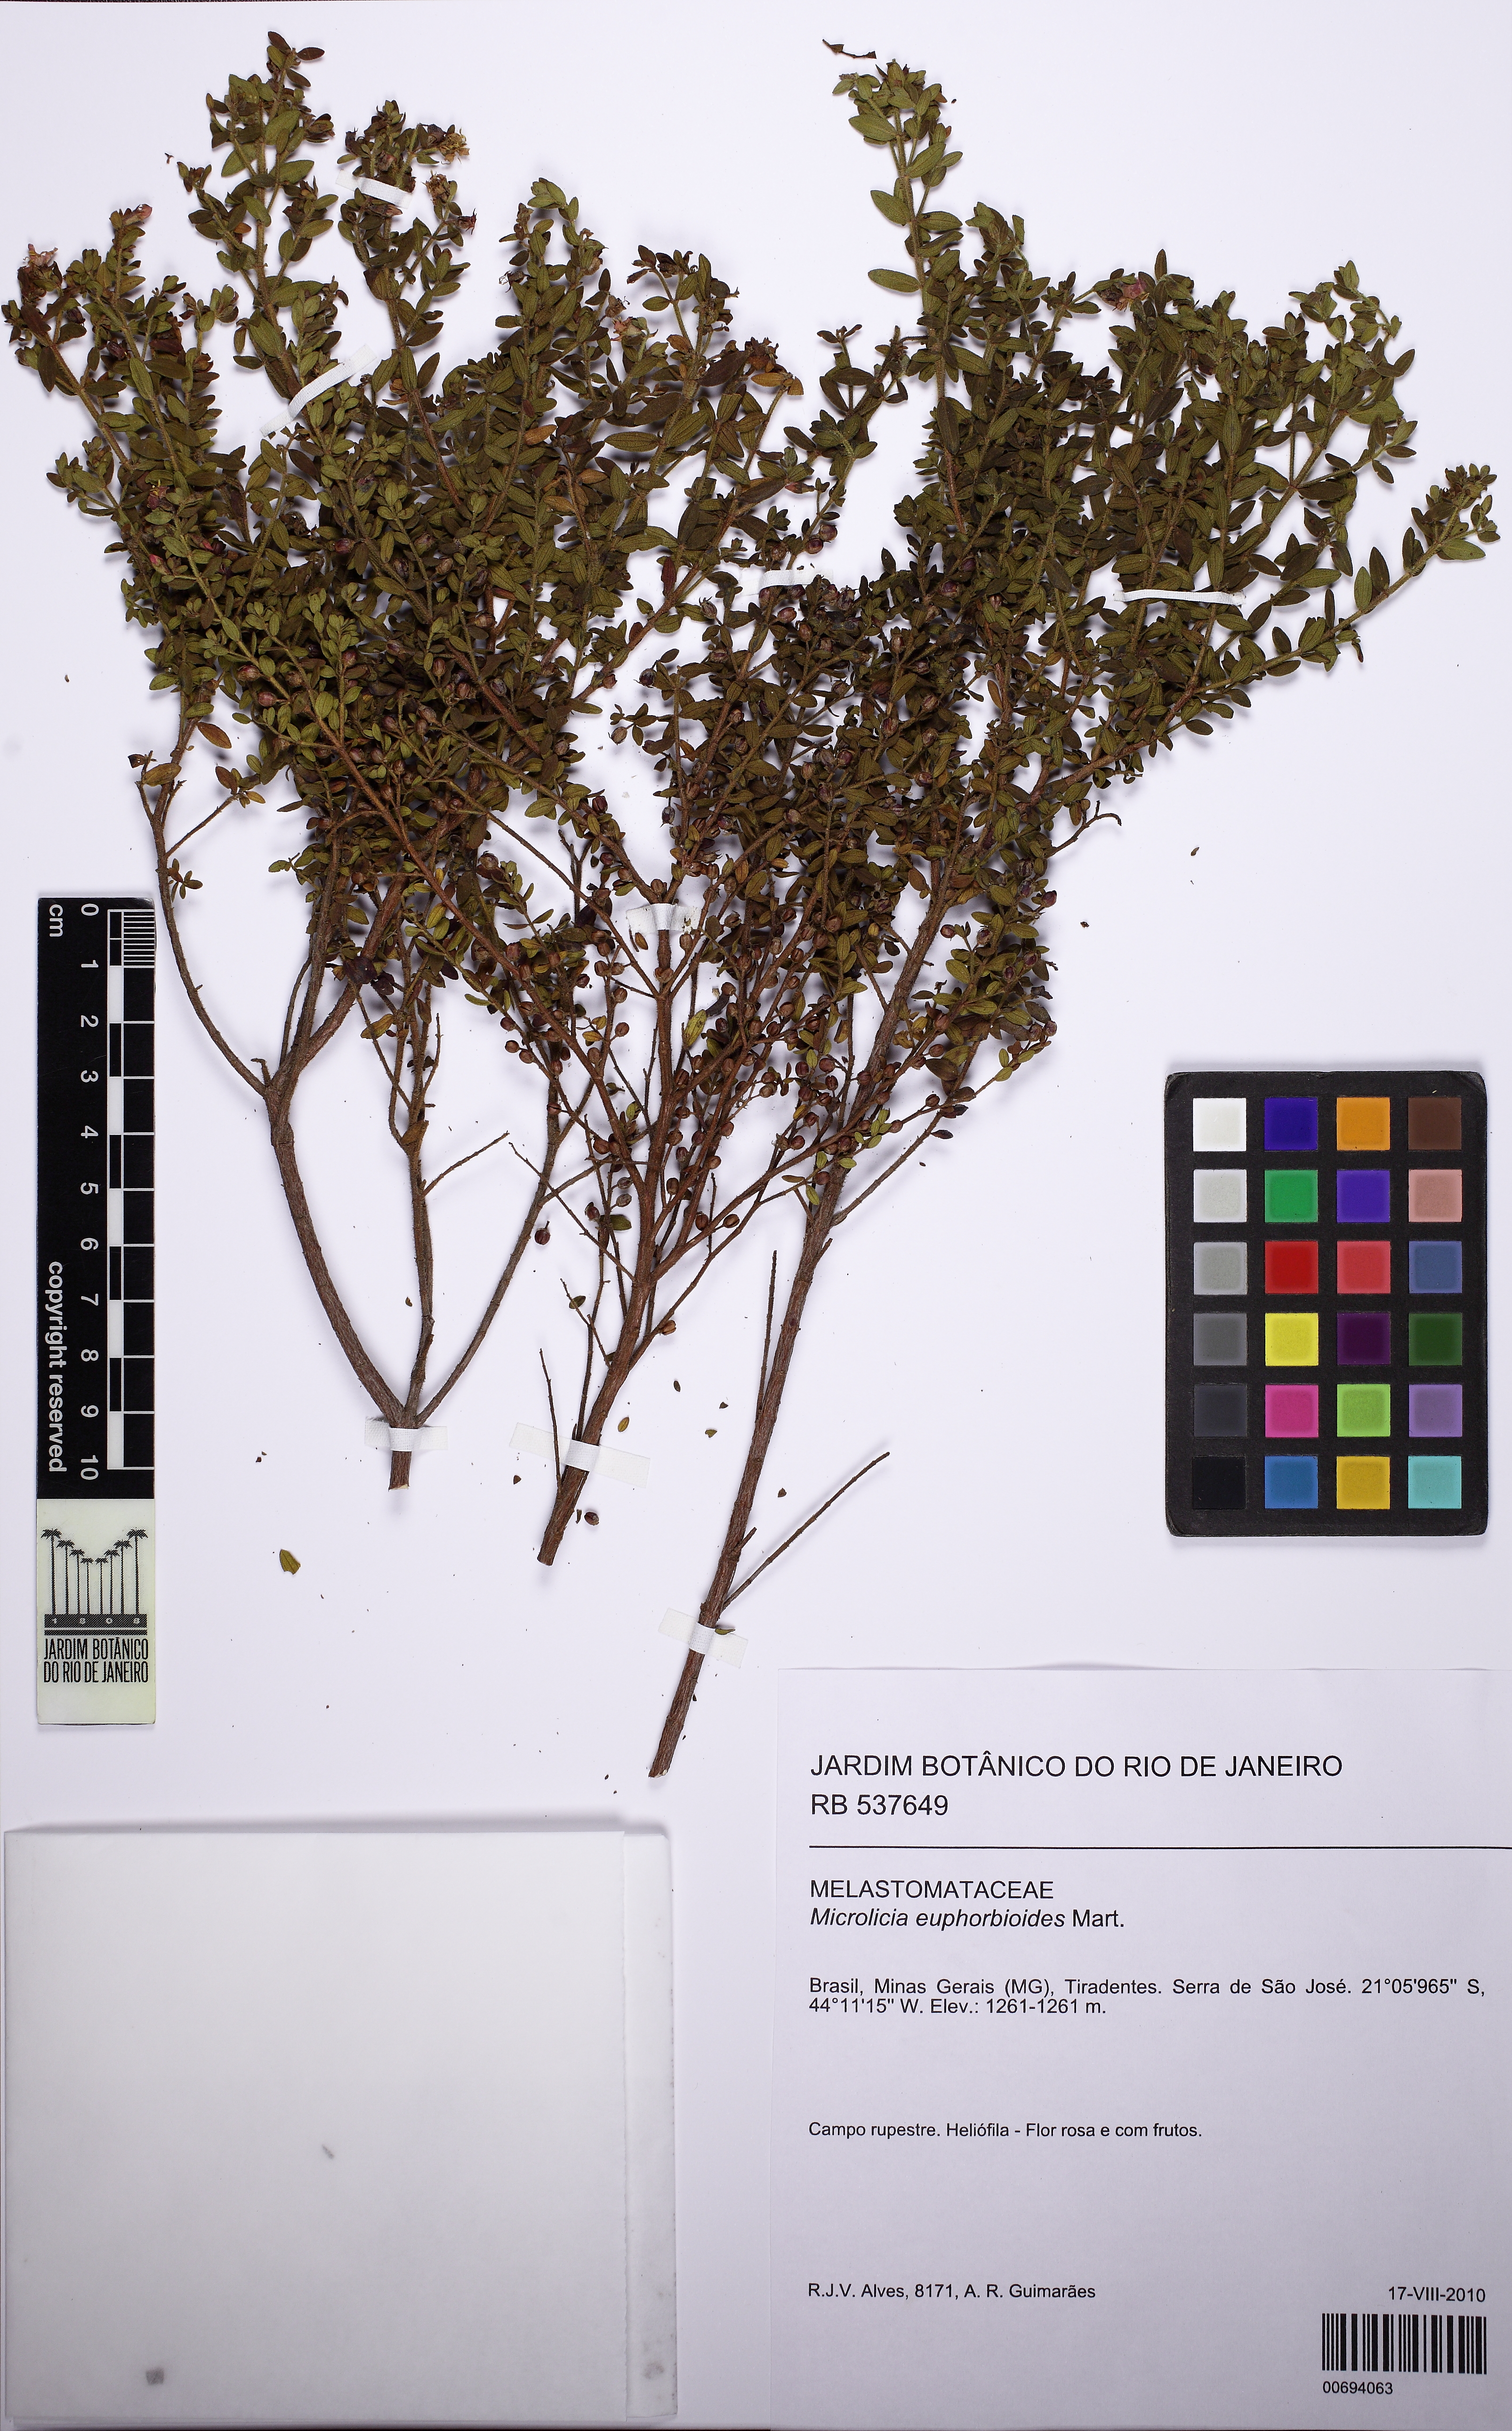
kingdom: Plantae
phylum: Tracheophyta
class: Magnoliopsida
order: Myrtales
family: Melastomataceae
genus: Microlicia
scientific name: Microlicia euphorbioides
